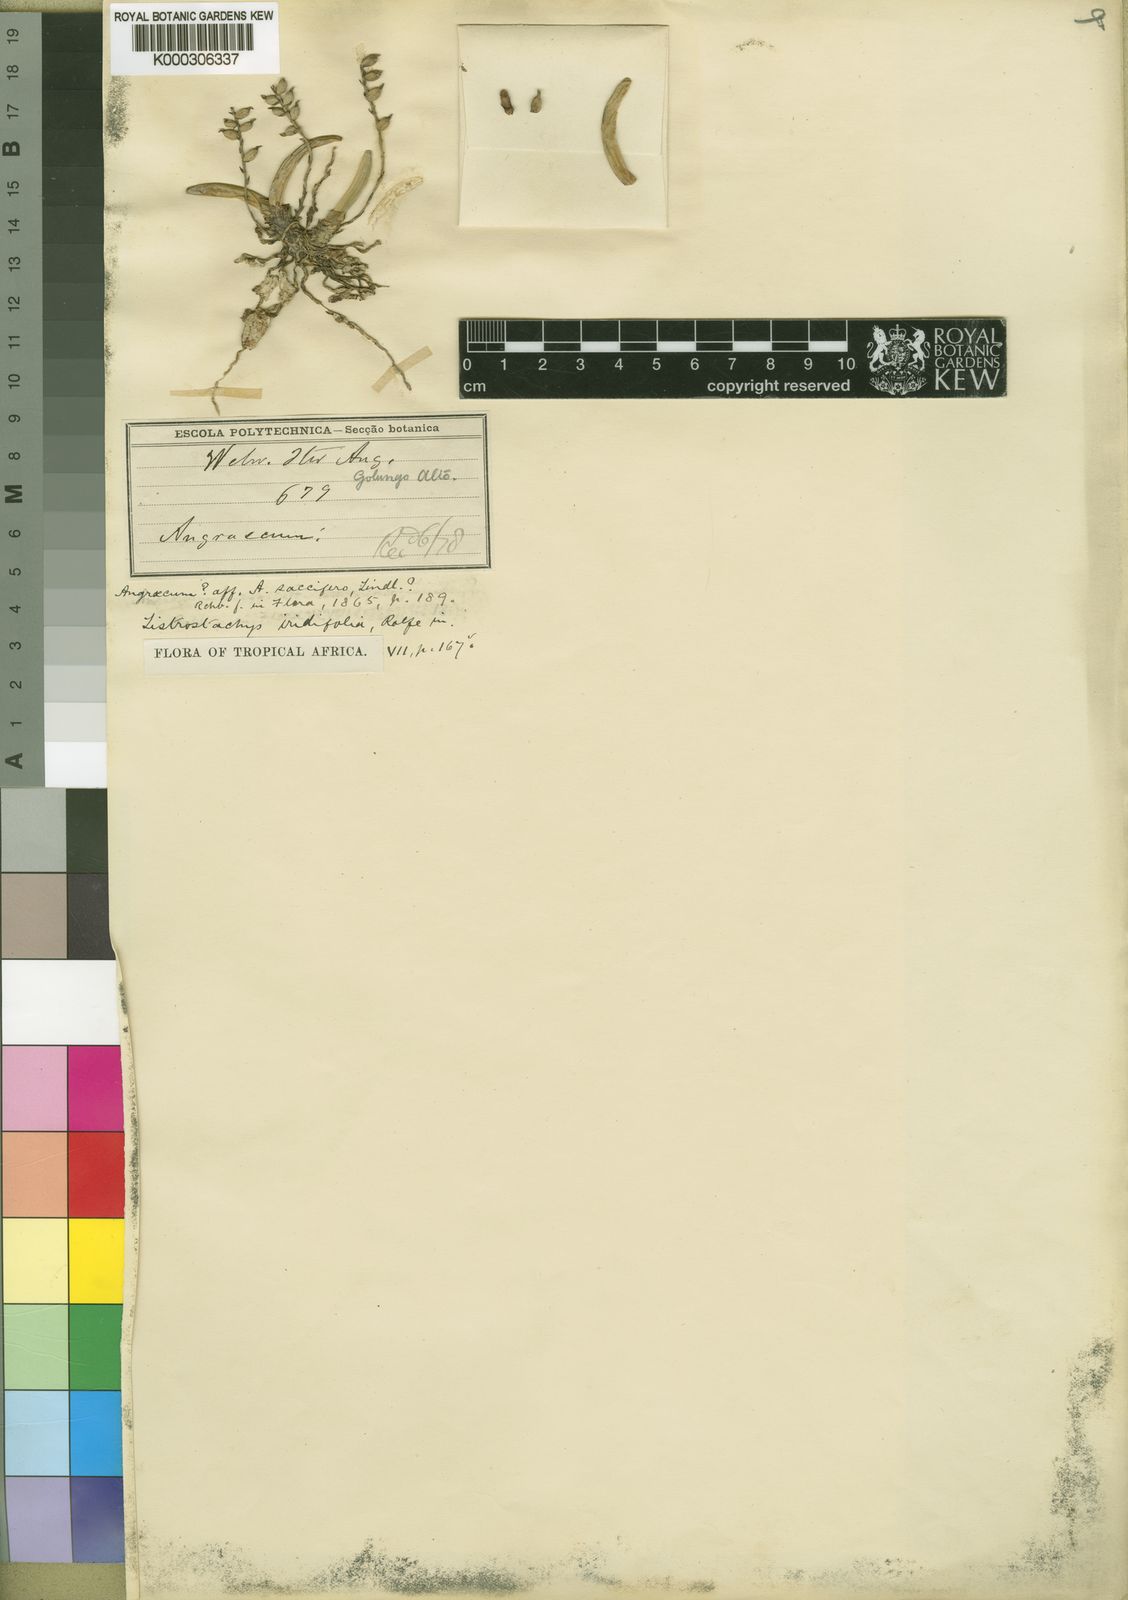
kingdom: Plantae
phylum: Tracheophyta
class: Liliopsida
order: Asparagales
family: Orchidaceae
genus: Bolusiella
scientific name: Bolusiella iridifolia
